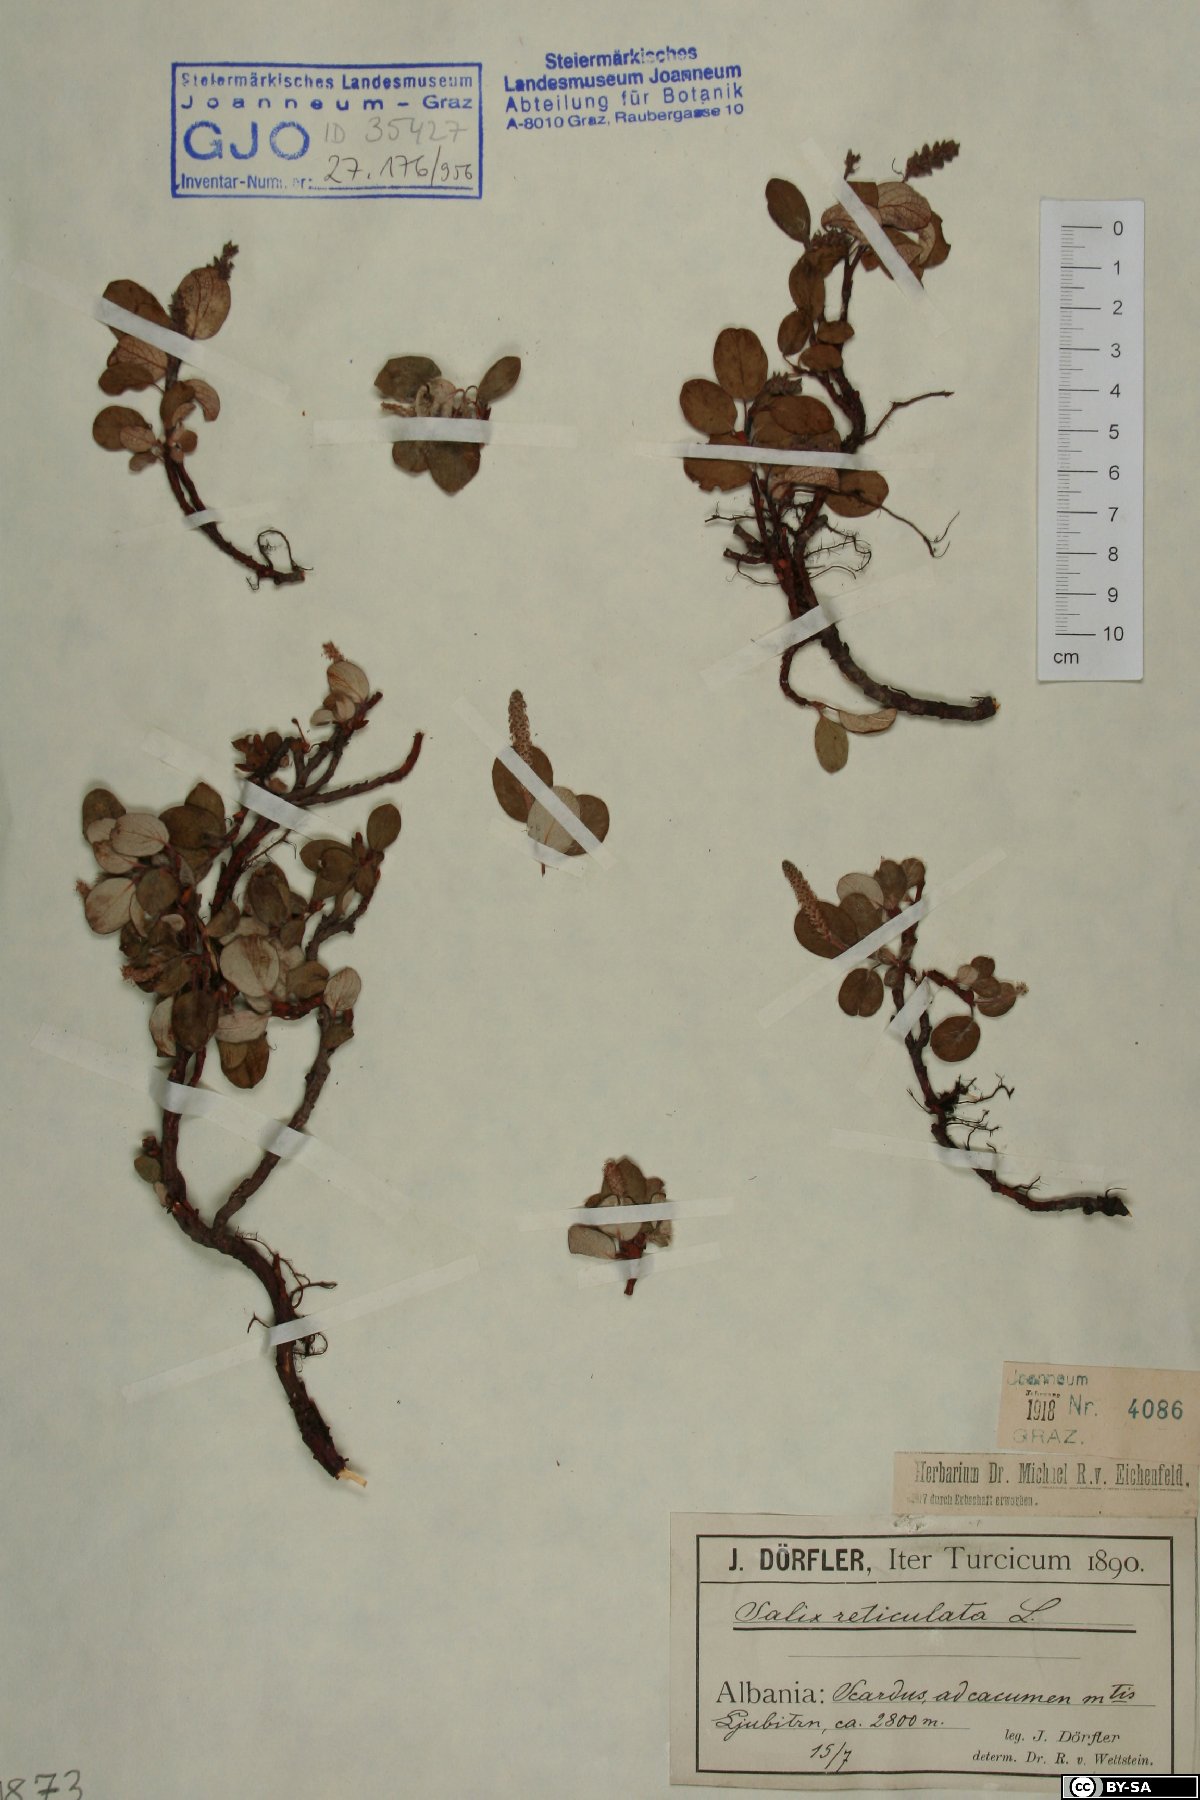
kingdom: Plantae
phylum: Tracheophyta
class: Magnoliopsida
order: Malpighiales
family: Salicaceae
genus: Salix
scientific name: Salix reticulata
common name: Net-leaved willow
